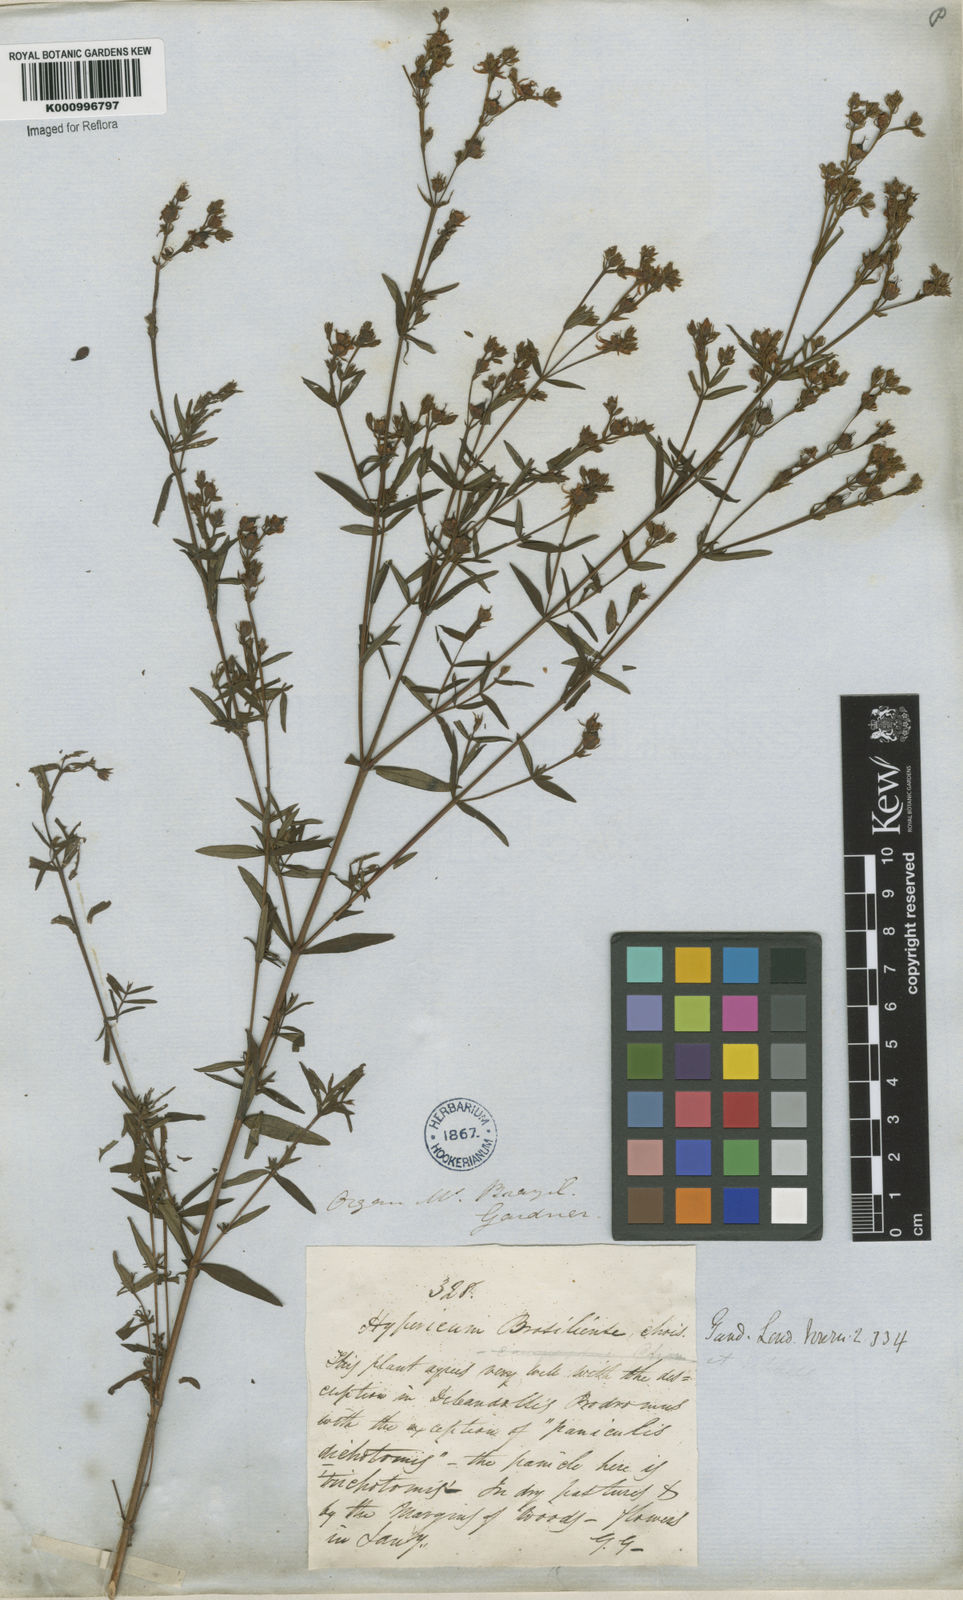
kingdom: Plantae
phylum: Tracheophyta
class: Magnoliopsida
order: Malpighiales
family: Hypericaceae
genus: Hypericum
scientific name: Hypericum brasiliense
